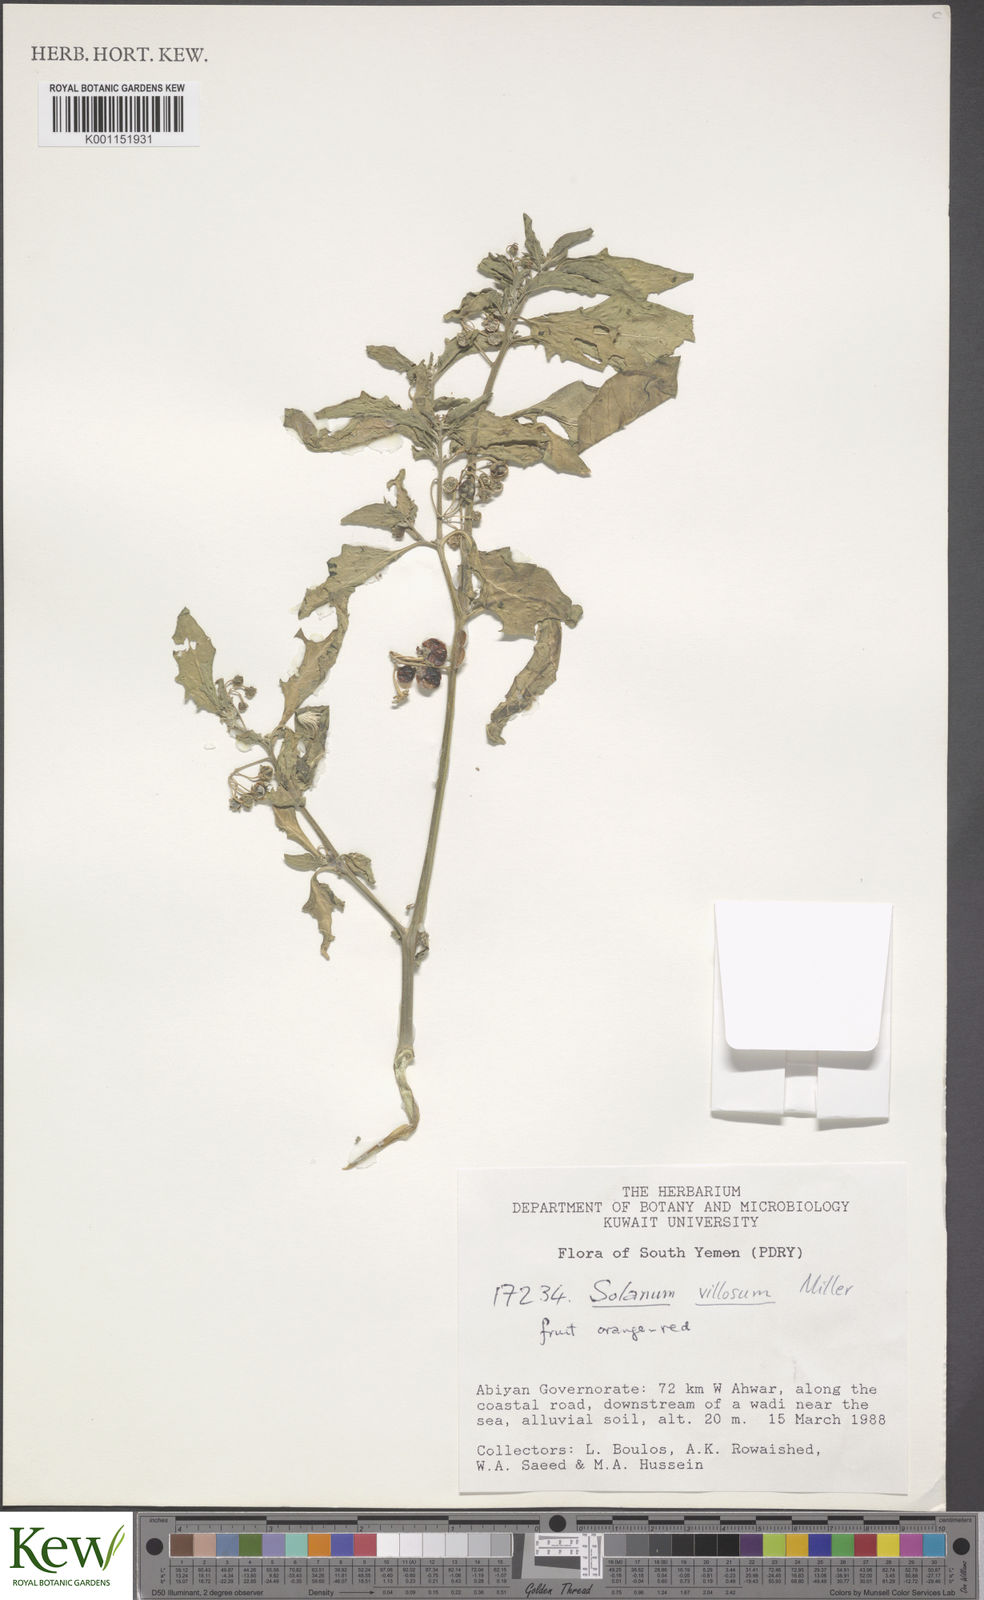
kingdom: Plantae
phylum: Tracheophyta
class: Magnoliopsida
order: Solanales
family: Solanaceae
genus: Solanum
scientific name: Solanum villosum
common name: Red nightshade
